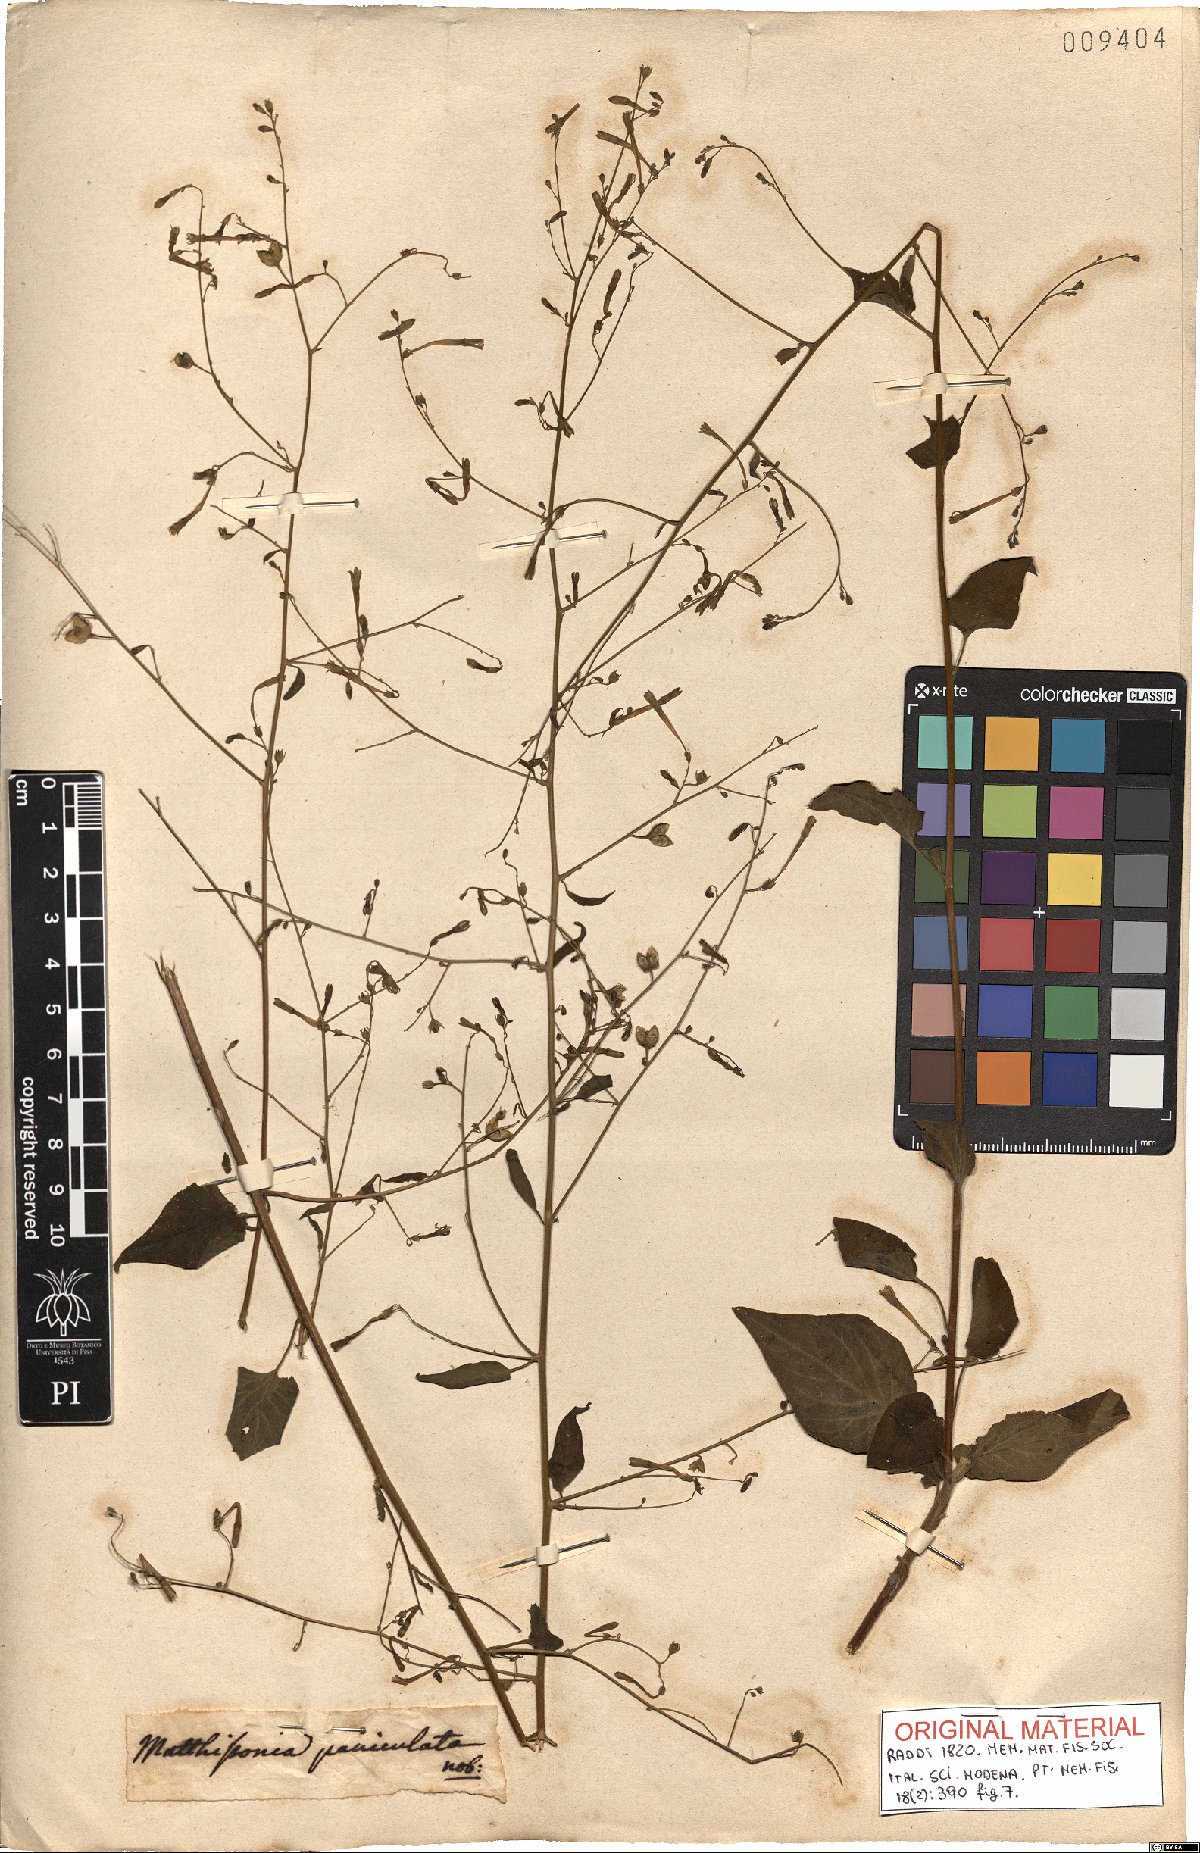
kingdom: Plantae
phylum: Tracheophyta
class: Magnoliopsida
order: Solanales
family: Solanaceae
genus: Schwenckia
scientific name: Schwenckia paniculata
